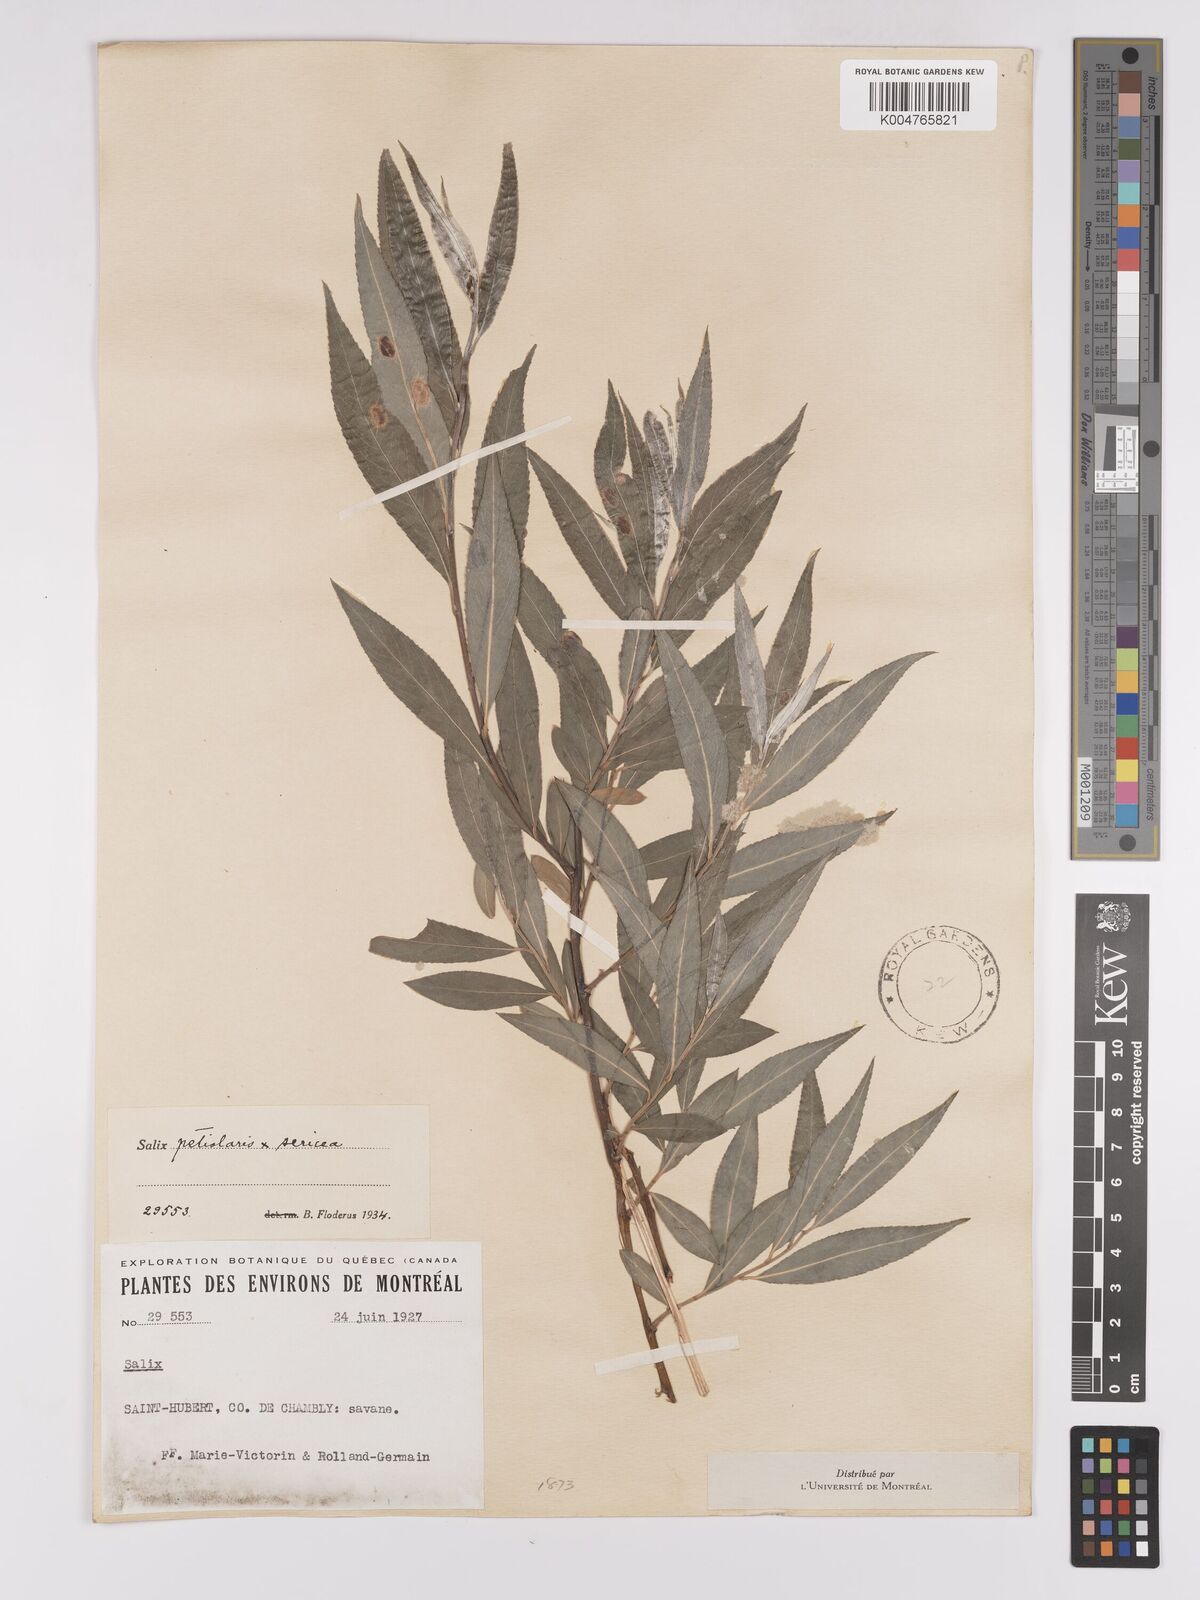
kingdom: Plantae
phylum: Tracheophyta
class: Magnoliopsida
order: Malpighiales
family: Salicaceae
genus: Salix
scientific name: Salix petiolaris
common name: Slender willow
